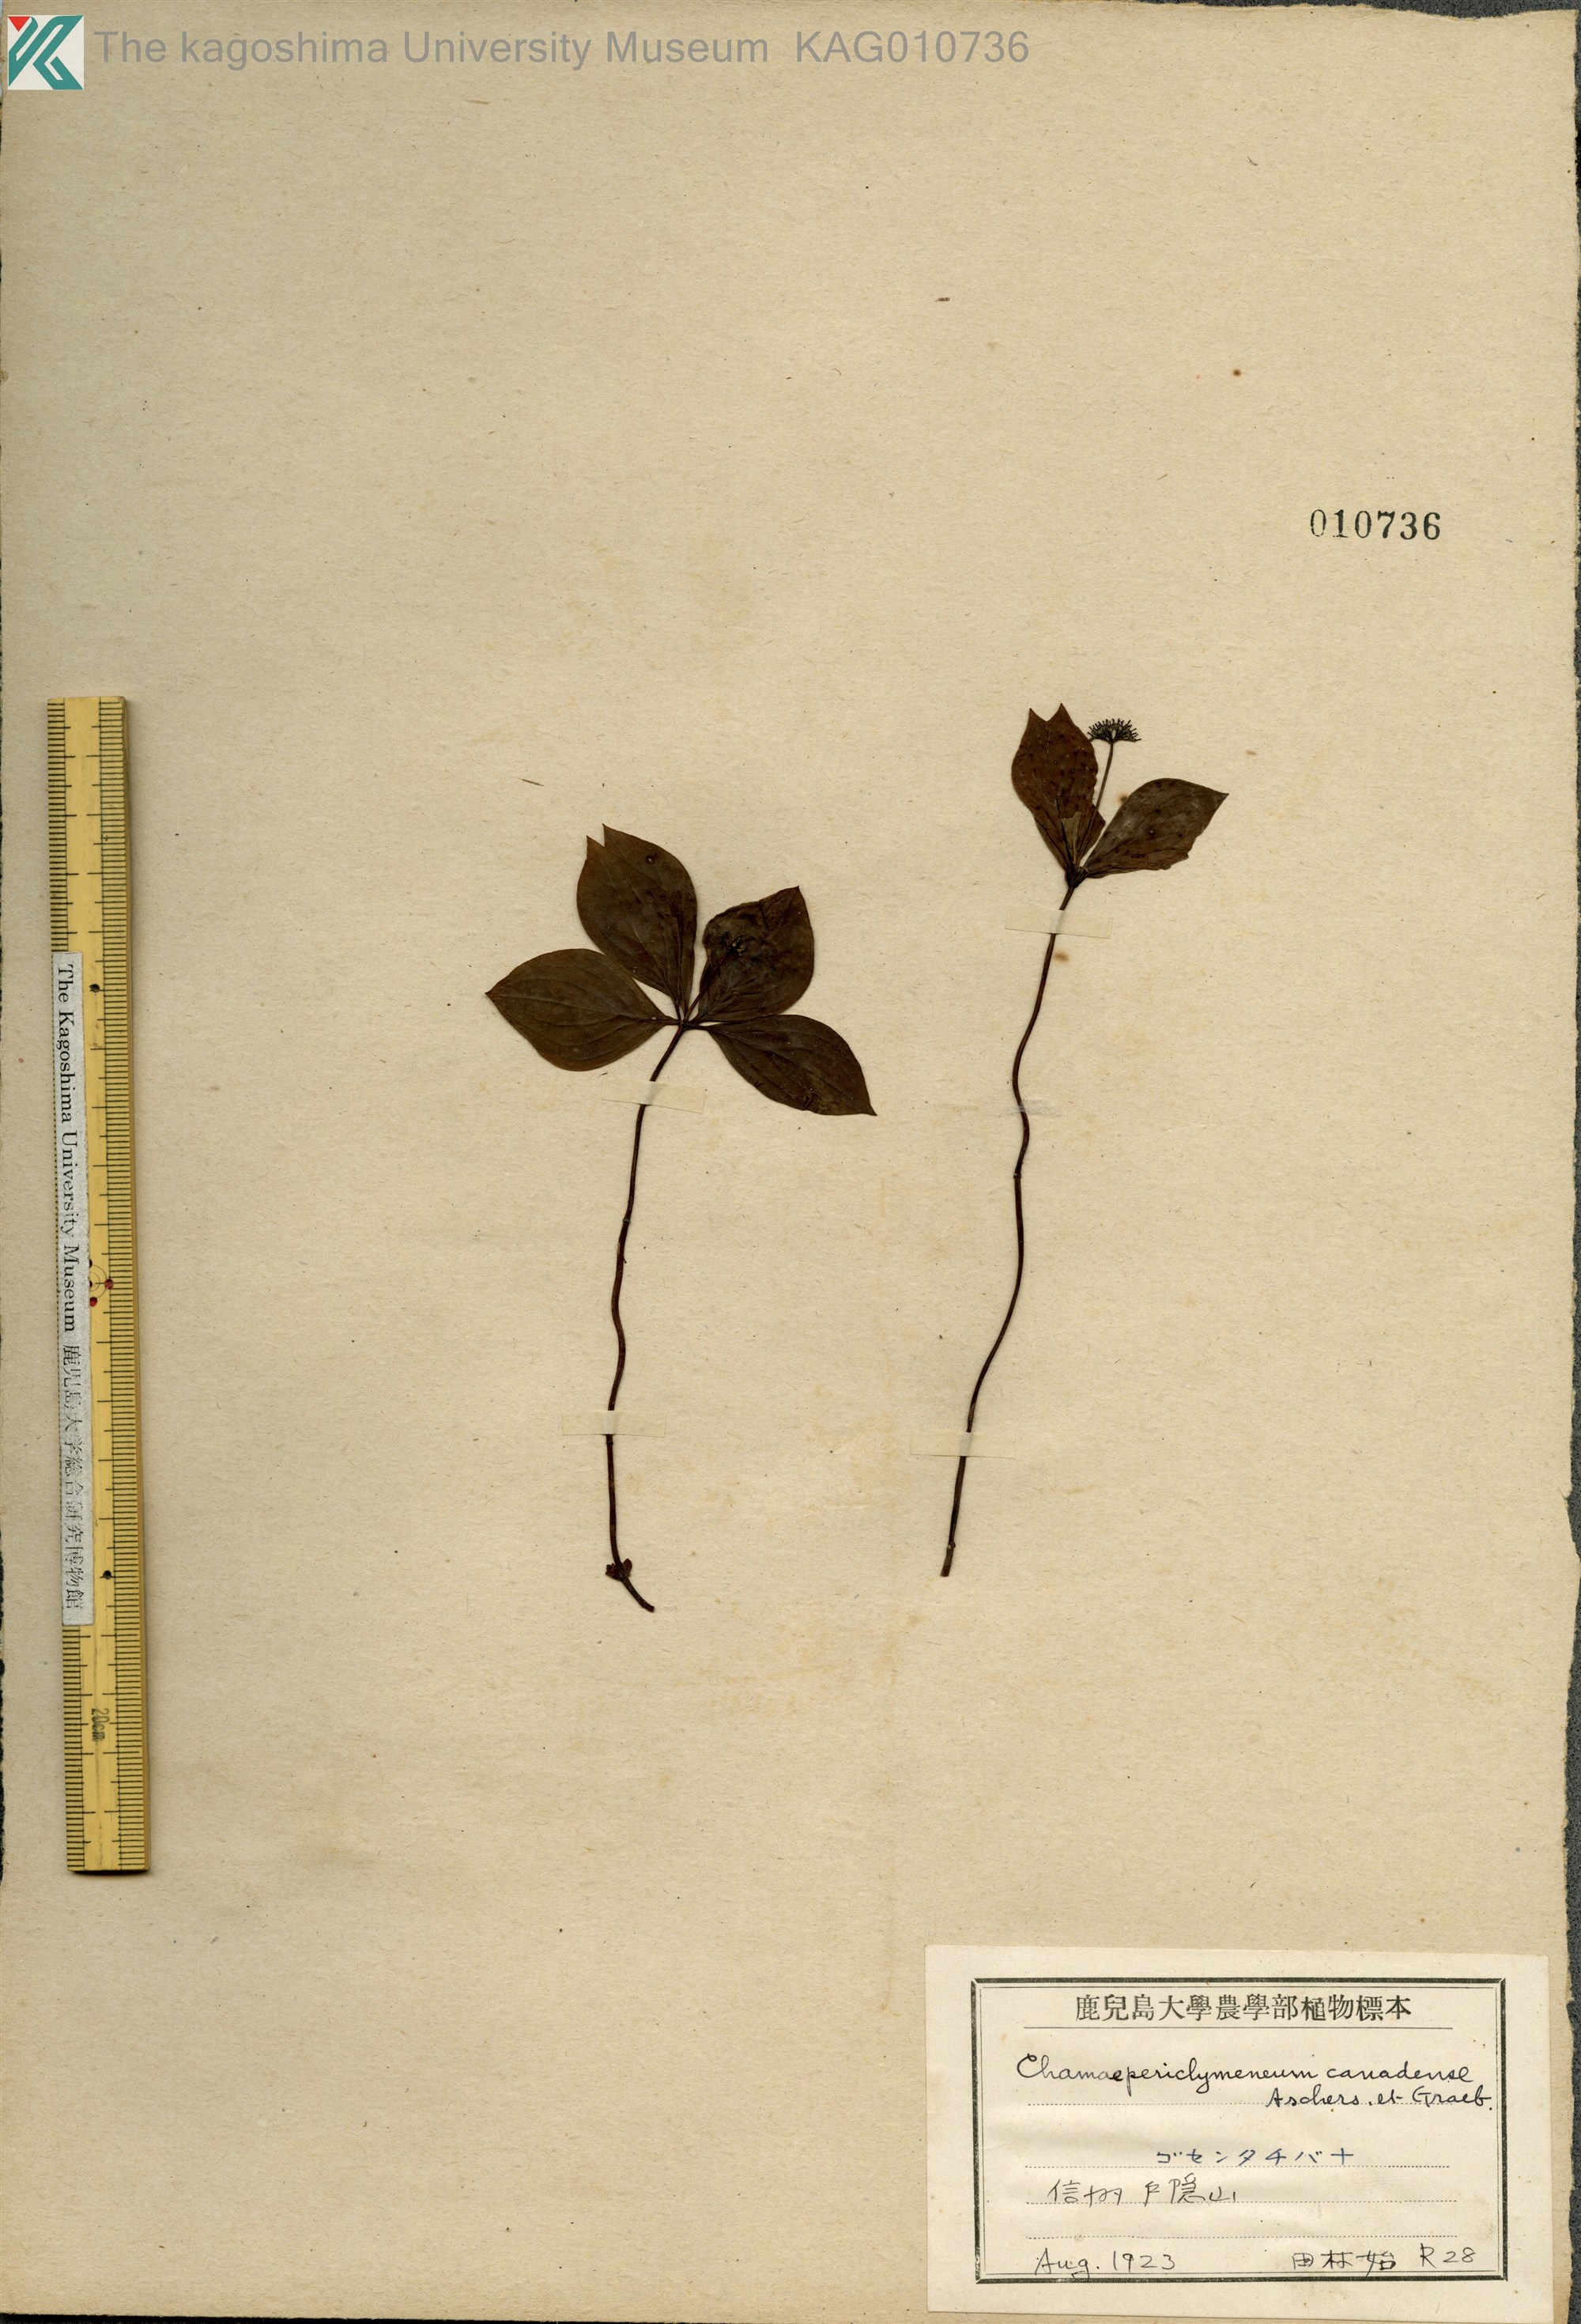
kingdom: Plantae
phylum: Tracheophyta
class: Magnoliopsida
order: Cornales
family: Cornaceae
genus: Cornus
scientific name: Cornus canadensis
